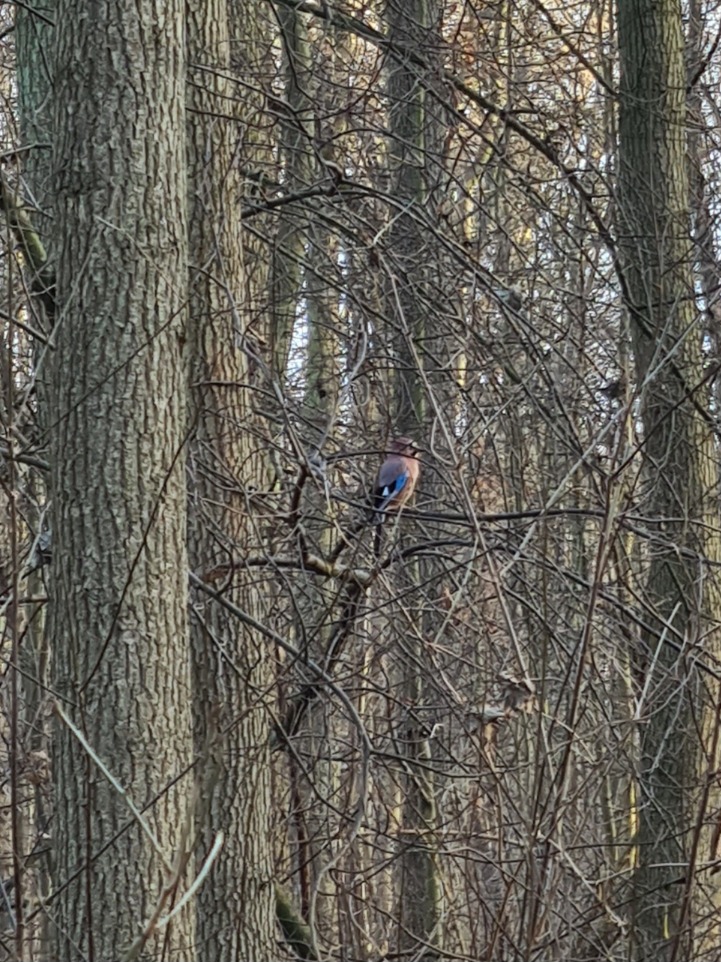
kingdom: Animalia
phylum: Chordata
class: Aves
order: Passeriformes
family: Corvidae
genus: Garrulus
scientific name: Garrulus glandarius
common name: Skovskade
